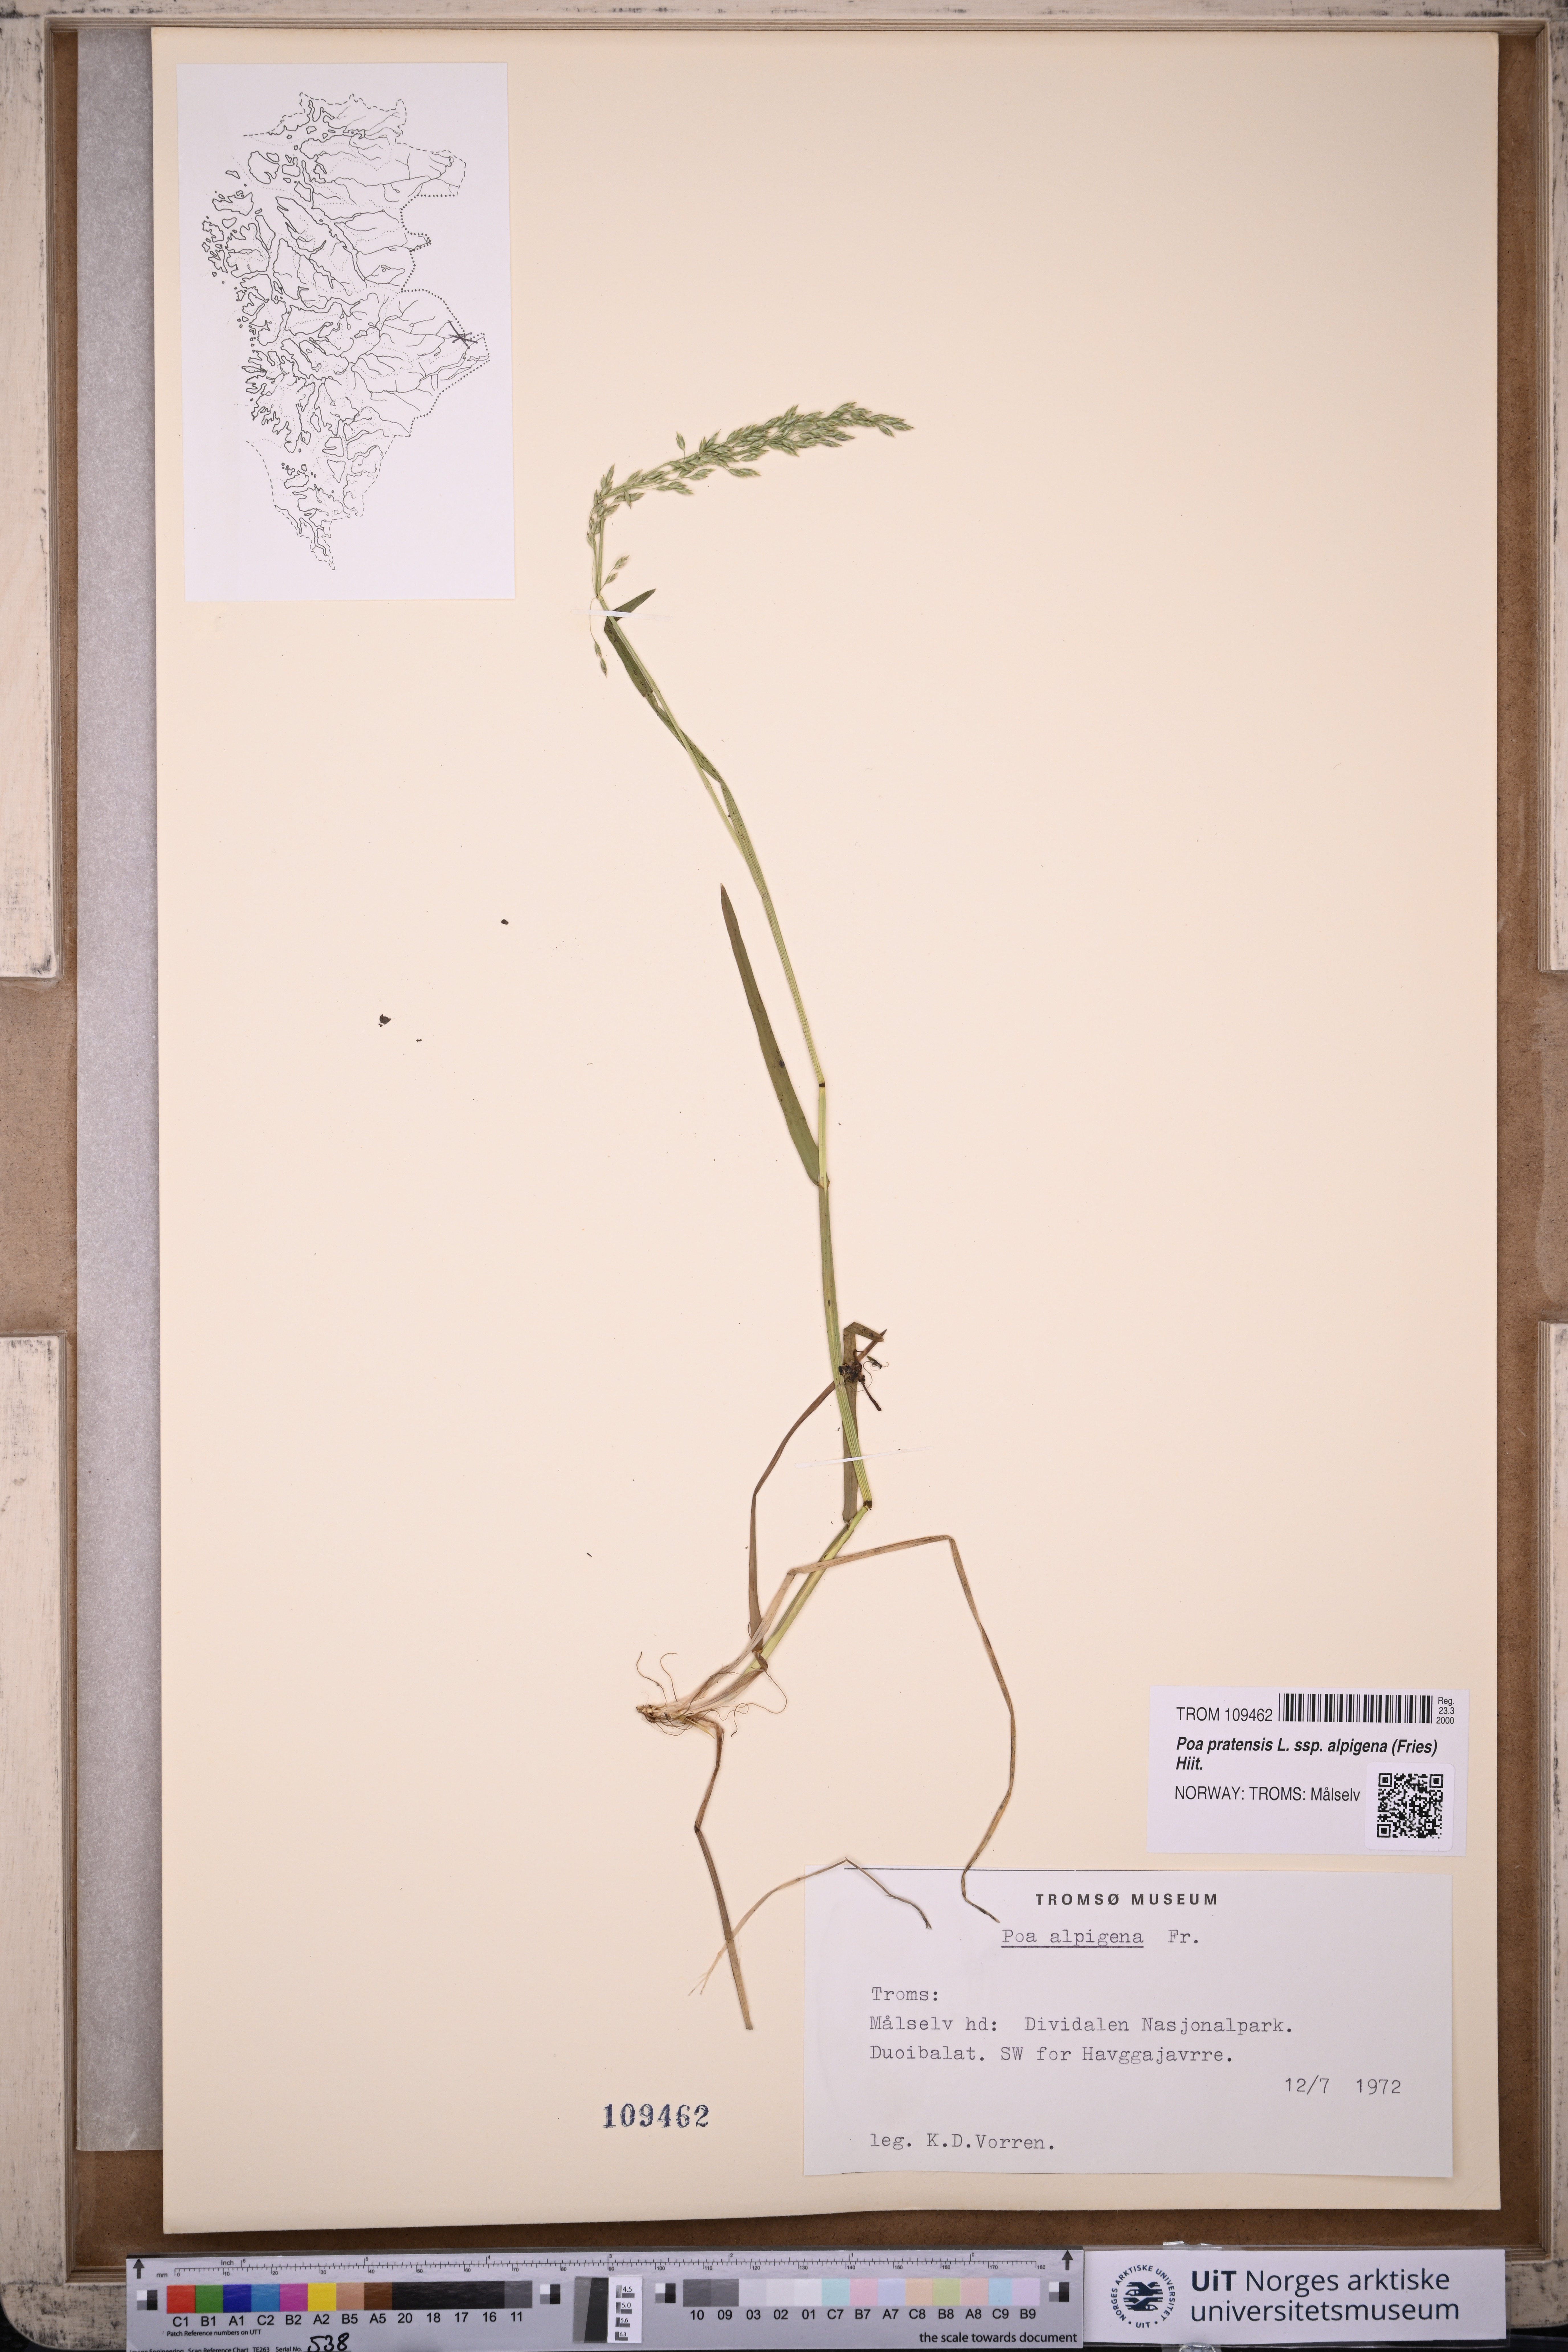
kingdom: Plantae
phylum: Tracheophyta
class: Liliopsida
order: Poales
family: Poaceae
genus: Poa
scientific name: Poa alpigena
